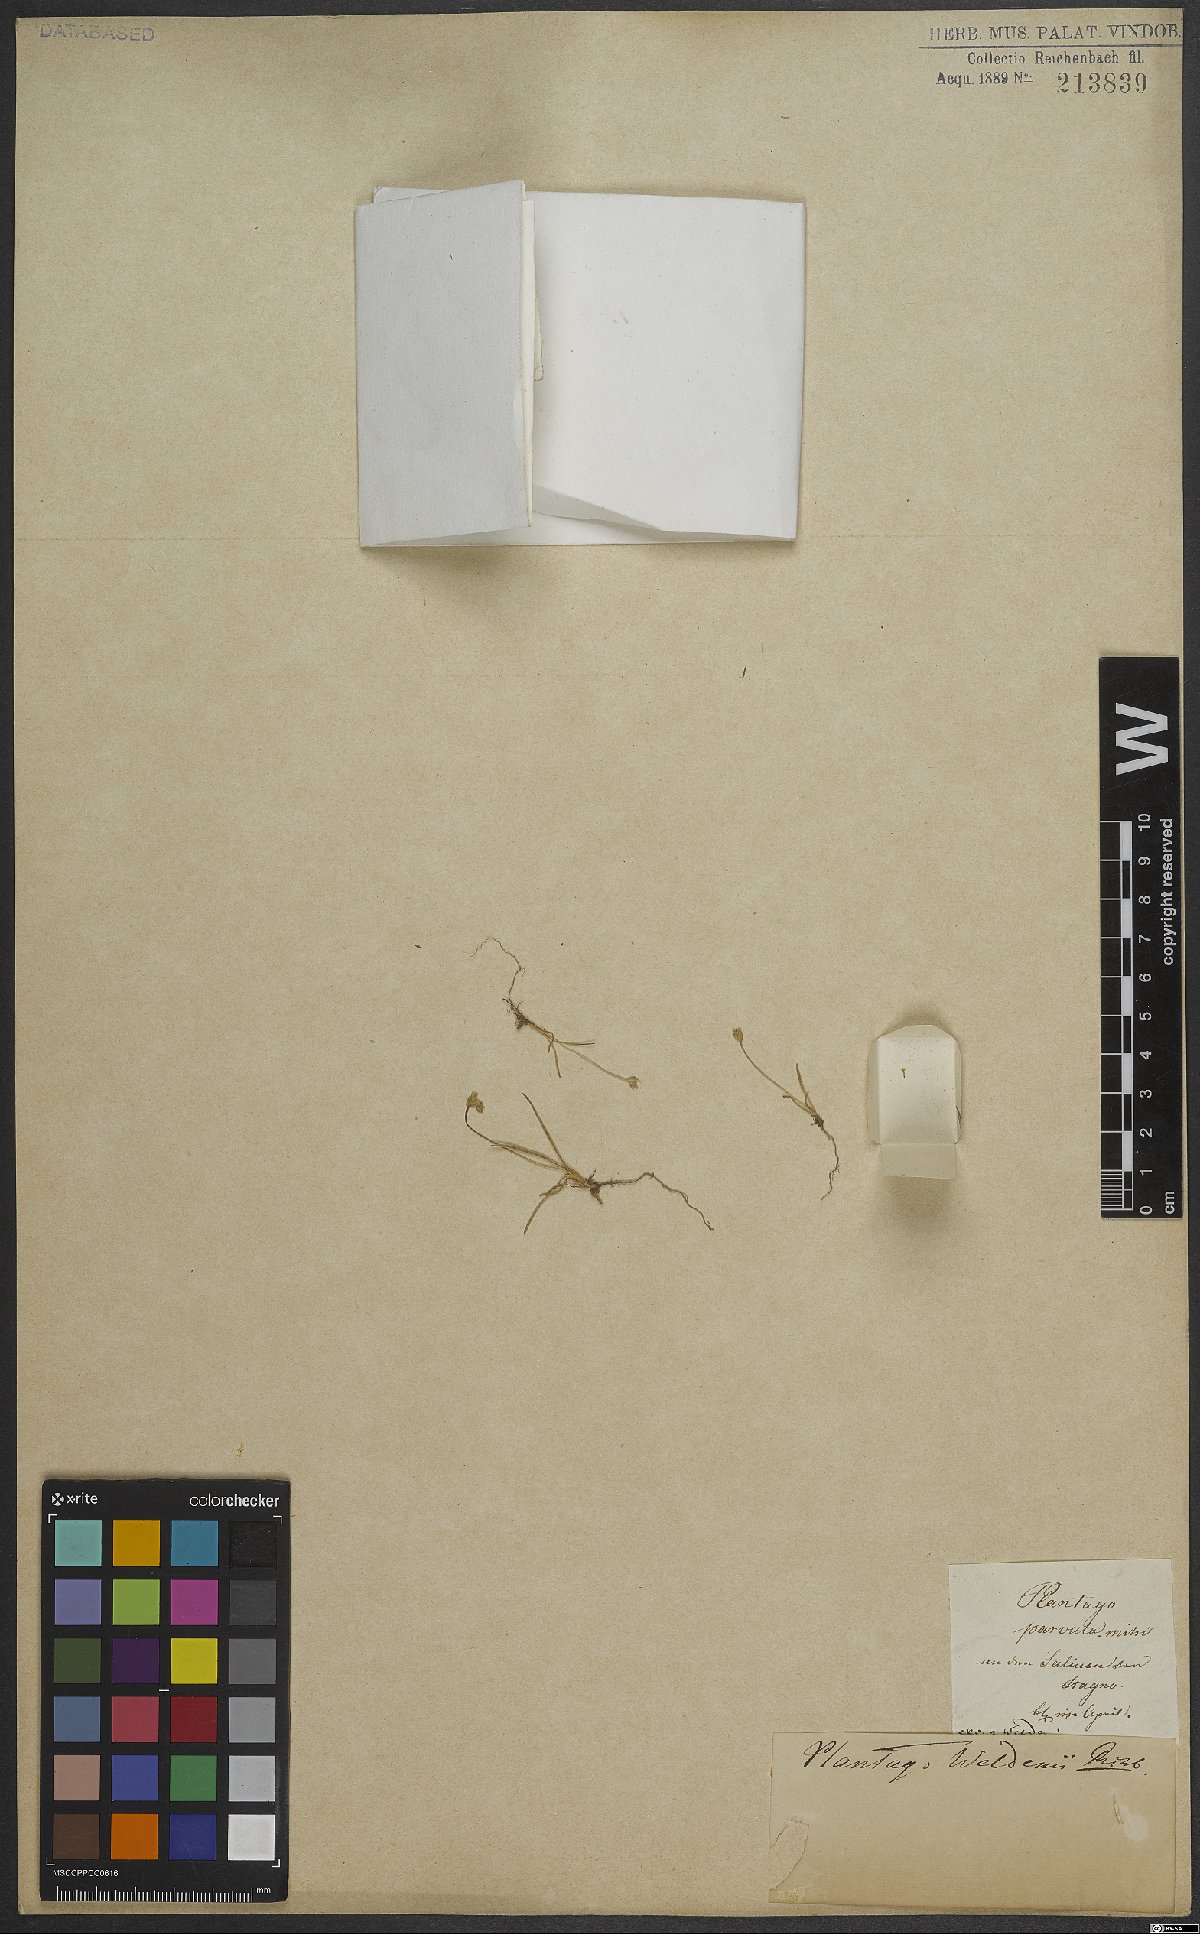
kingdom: Plantae
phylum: Tracheophyta
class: Magnoliopsida
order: Lamiales
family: Plantaginaceae
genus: Plantago
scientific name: Plantago weldenii
